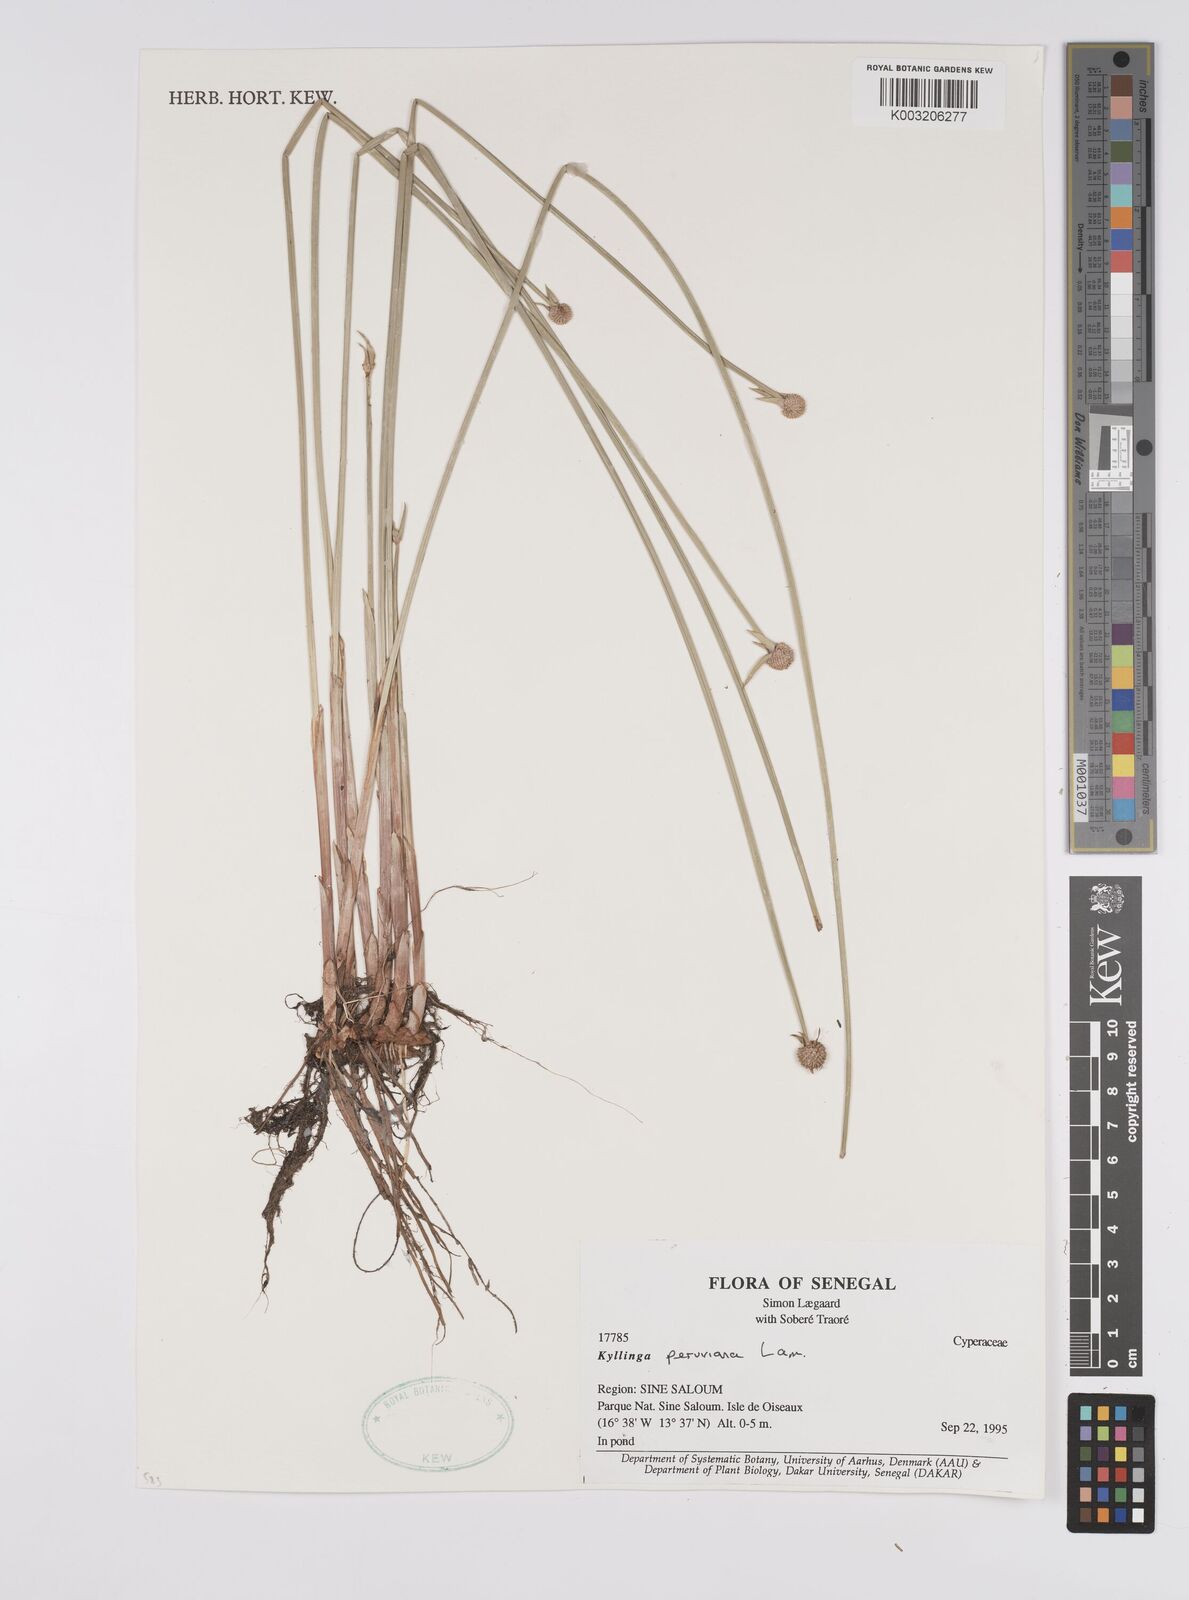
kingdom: Plantae
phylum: Tracheophyta
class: Liliopsida
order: Poales
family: Cyperaceae
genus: Cyperus
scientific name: Cyperus obtusatus
